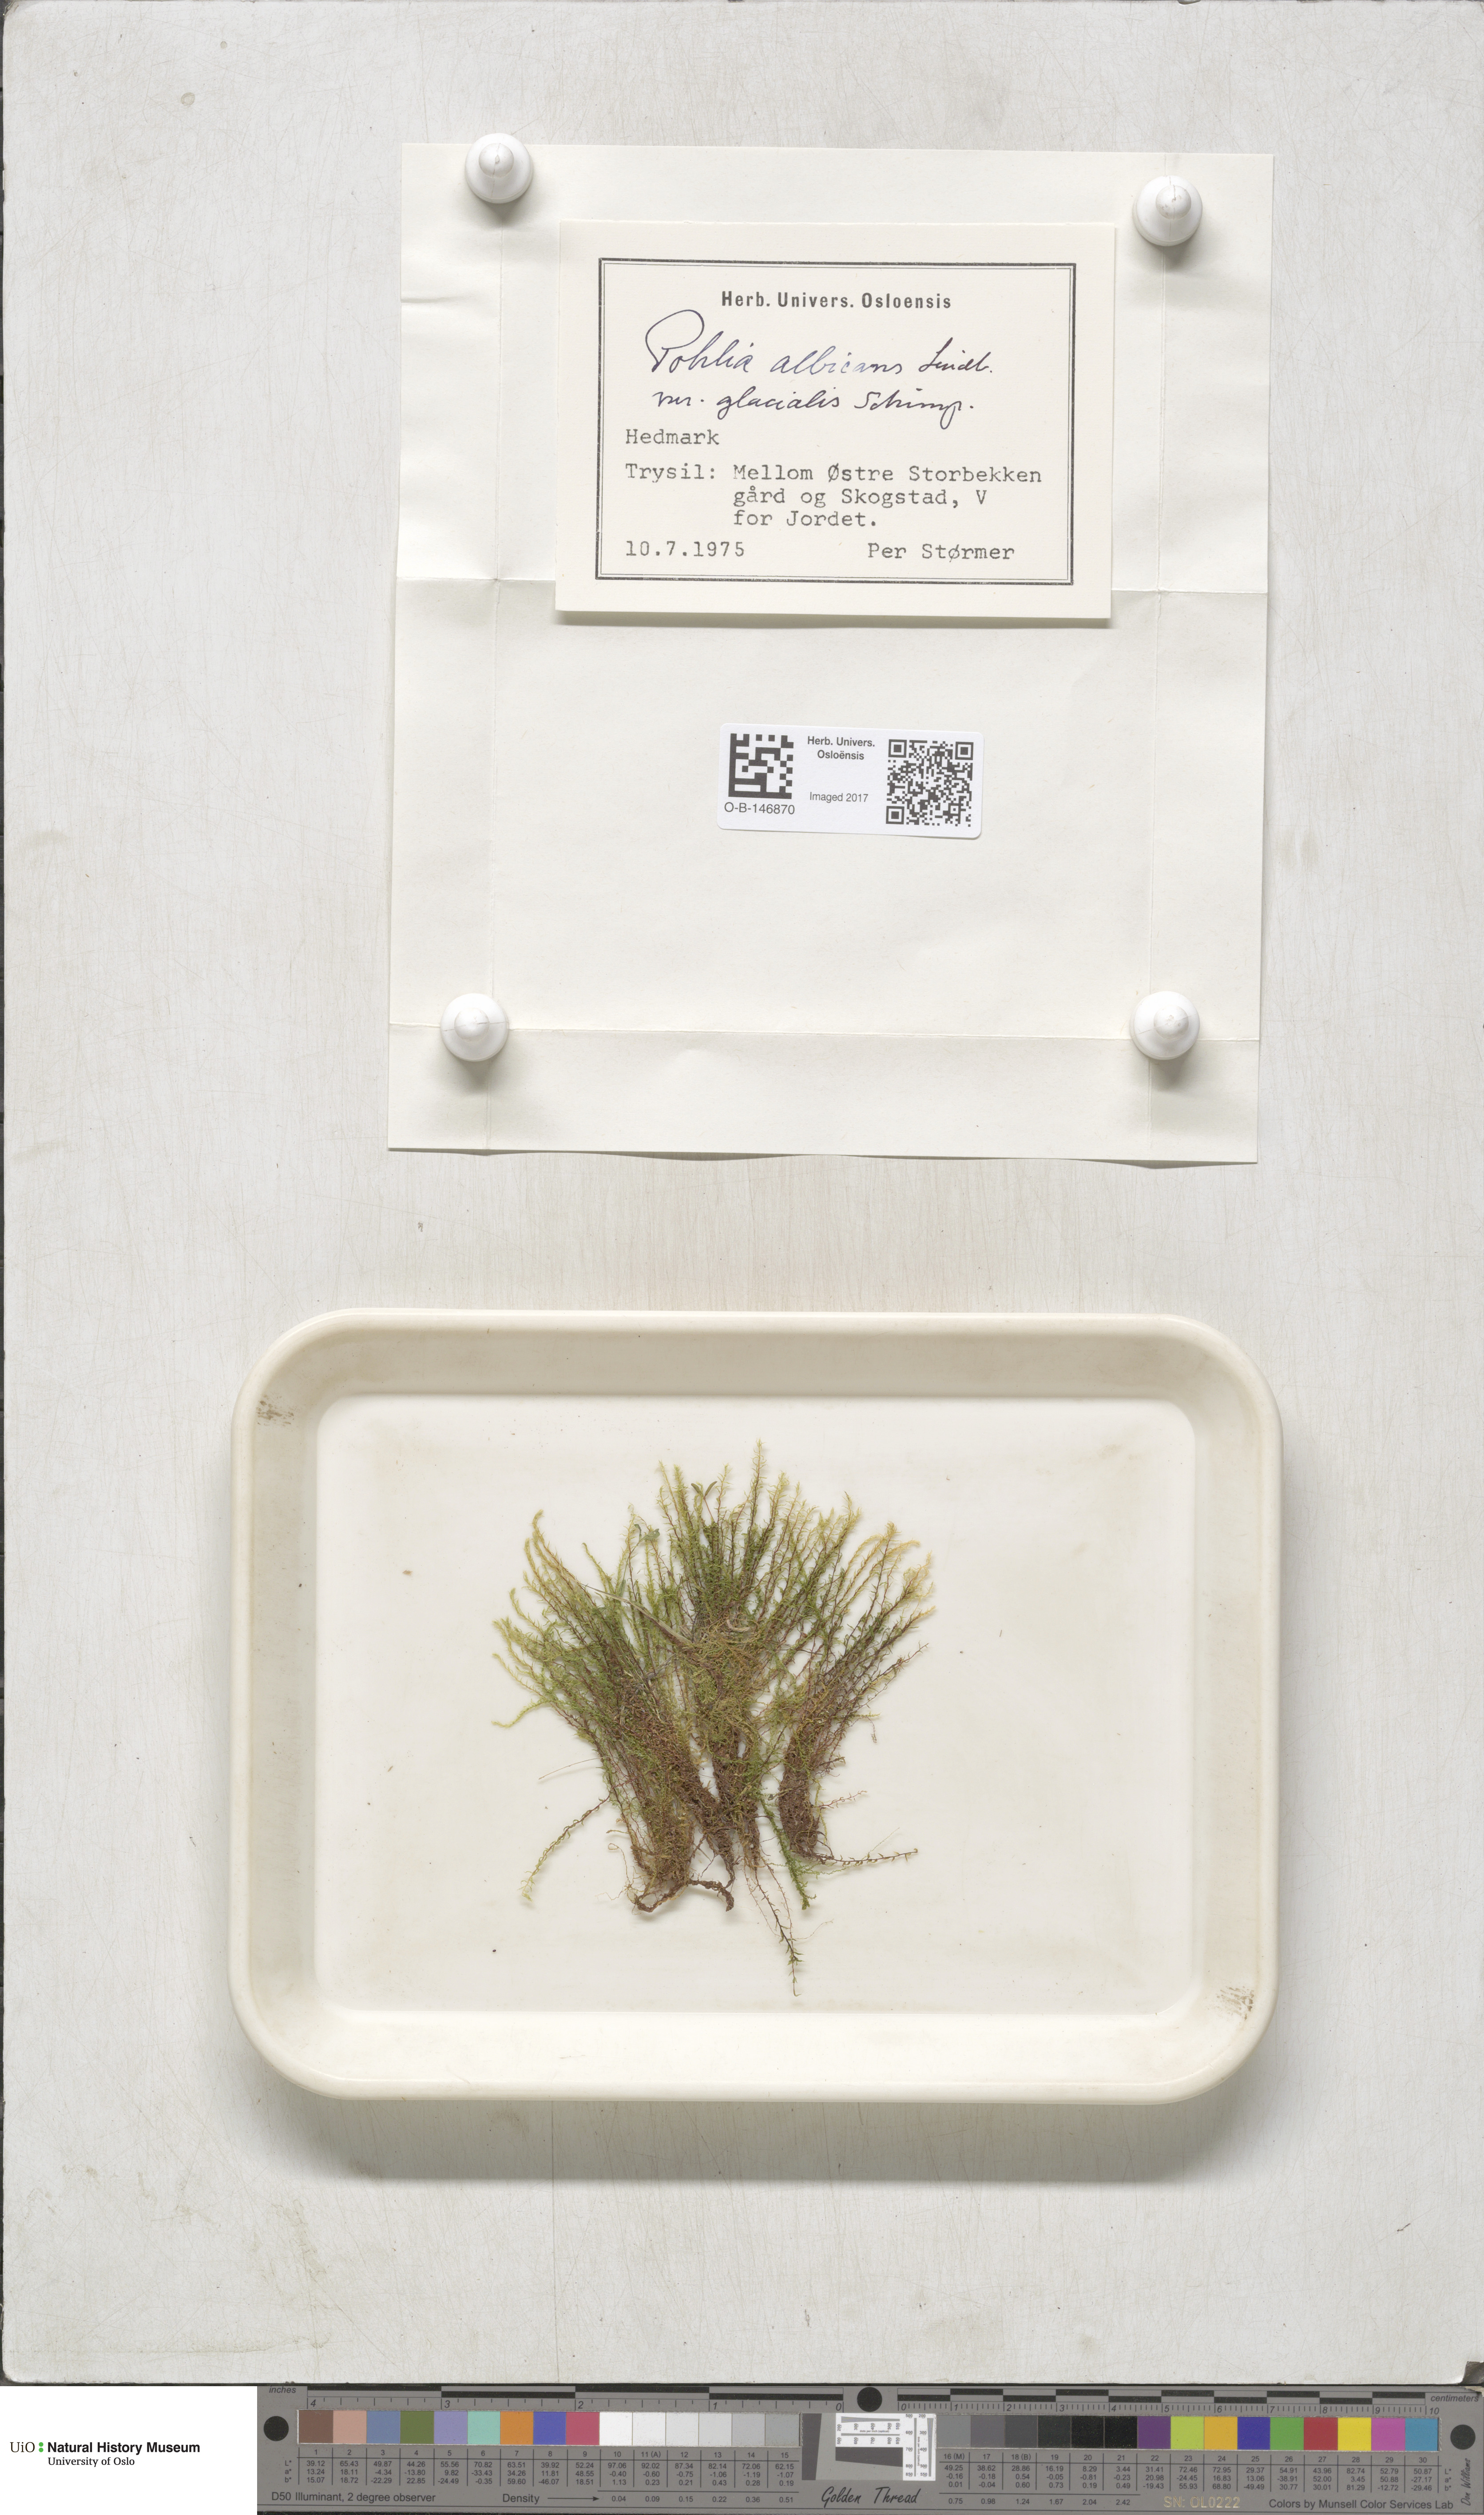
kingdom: Plantae
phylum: Bryophyta
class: Bryopsida
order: Bryales
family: Mniaceae
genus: Pohlia
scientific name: Pohlia wahlenbergii
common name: Wahlenberg's nodding moss
